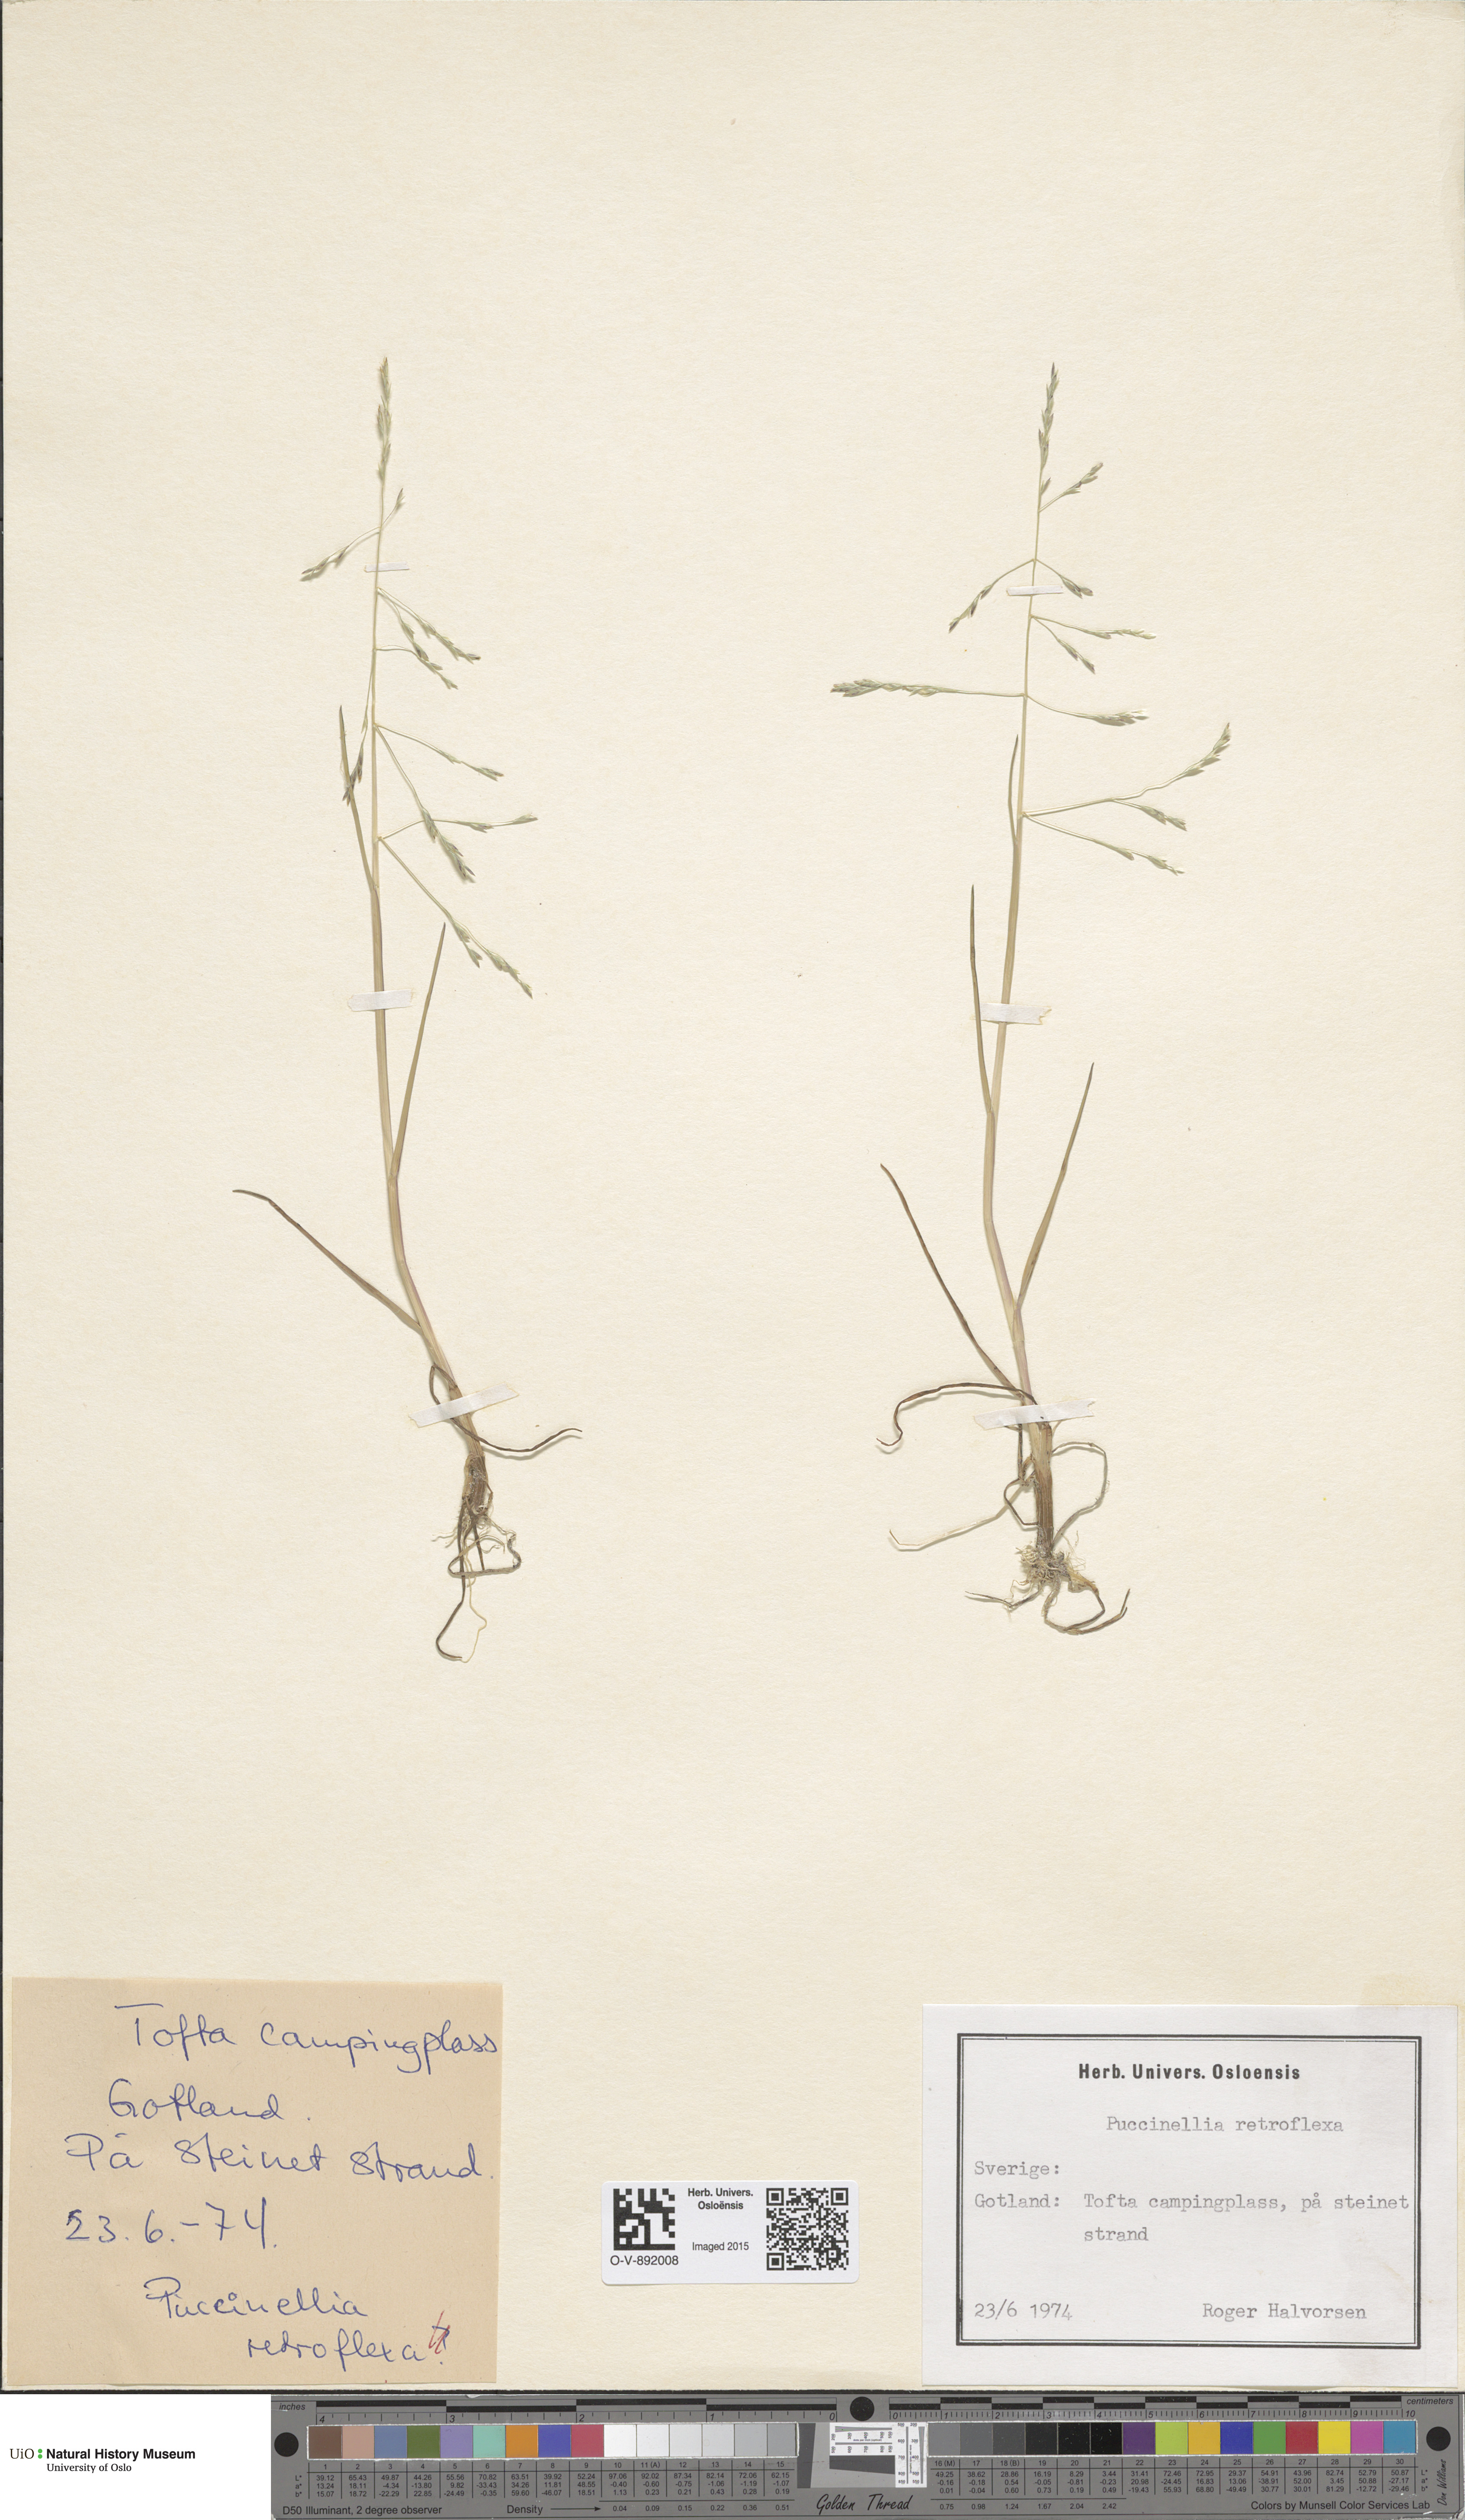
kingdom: Plantae
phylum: Tracheophyta
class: Liliopsida
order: Poales
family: Poaceae
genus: Puccinellia
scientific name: Puccinellia distans
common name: Weeping alkaligrass
